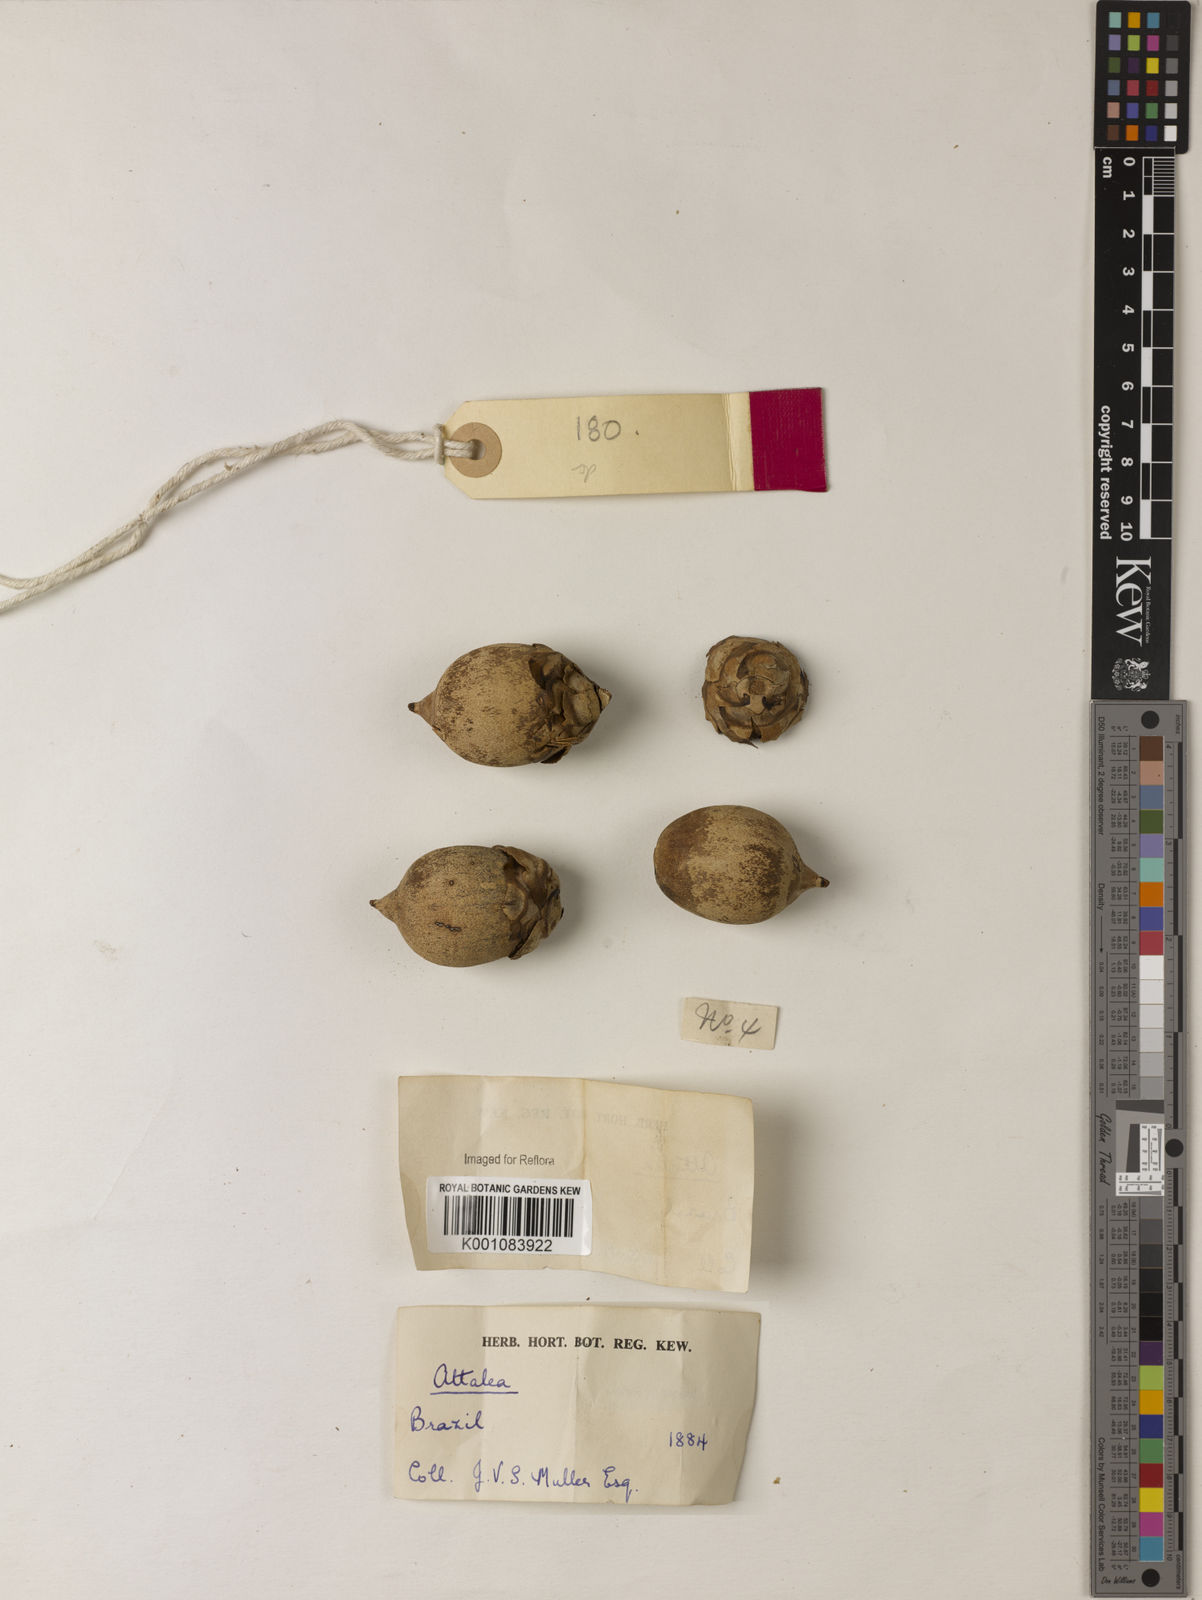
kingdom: Plantae
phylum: Tracheophyta
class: Liliopsida
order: Arecales
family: Arecaceae
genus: Attalea
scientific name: Attalea
